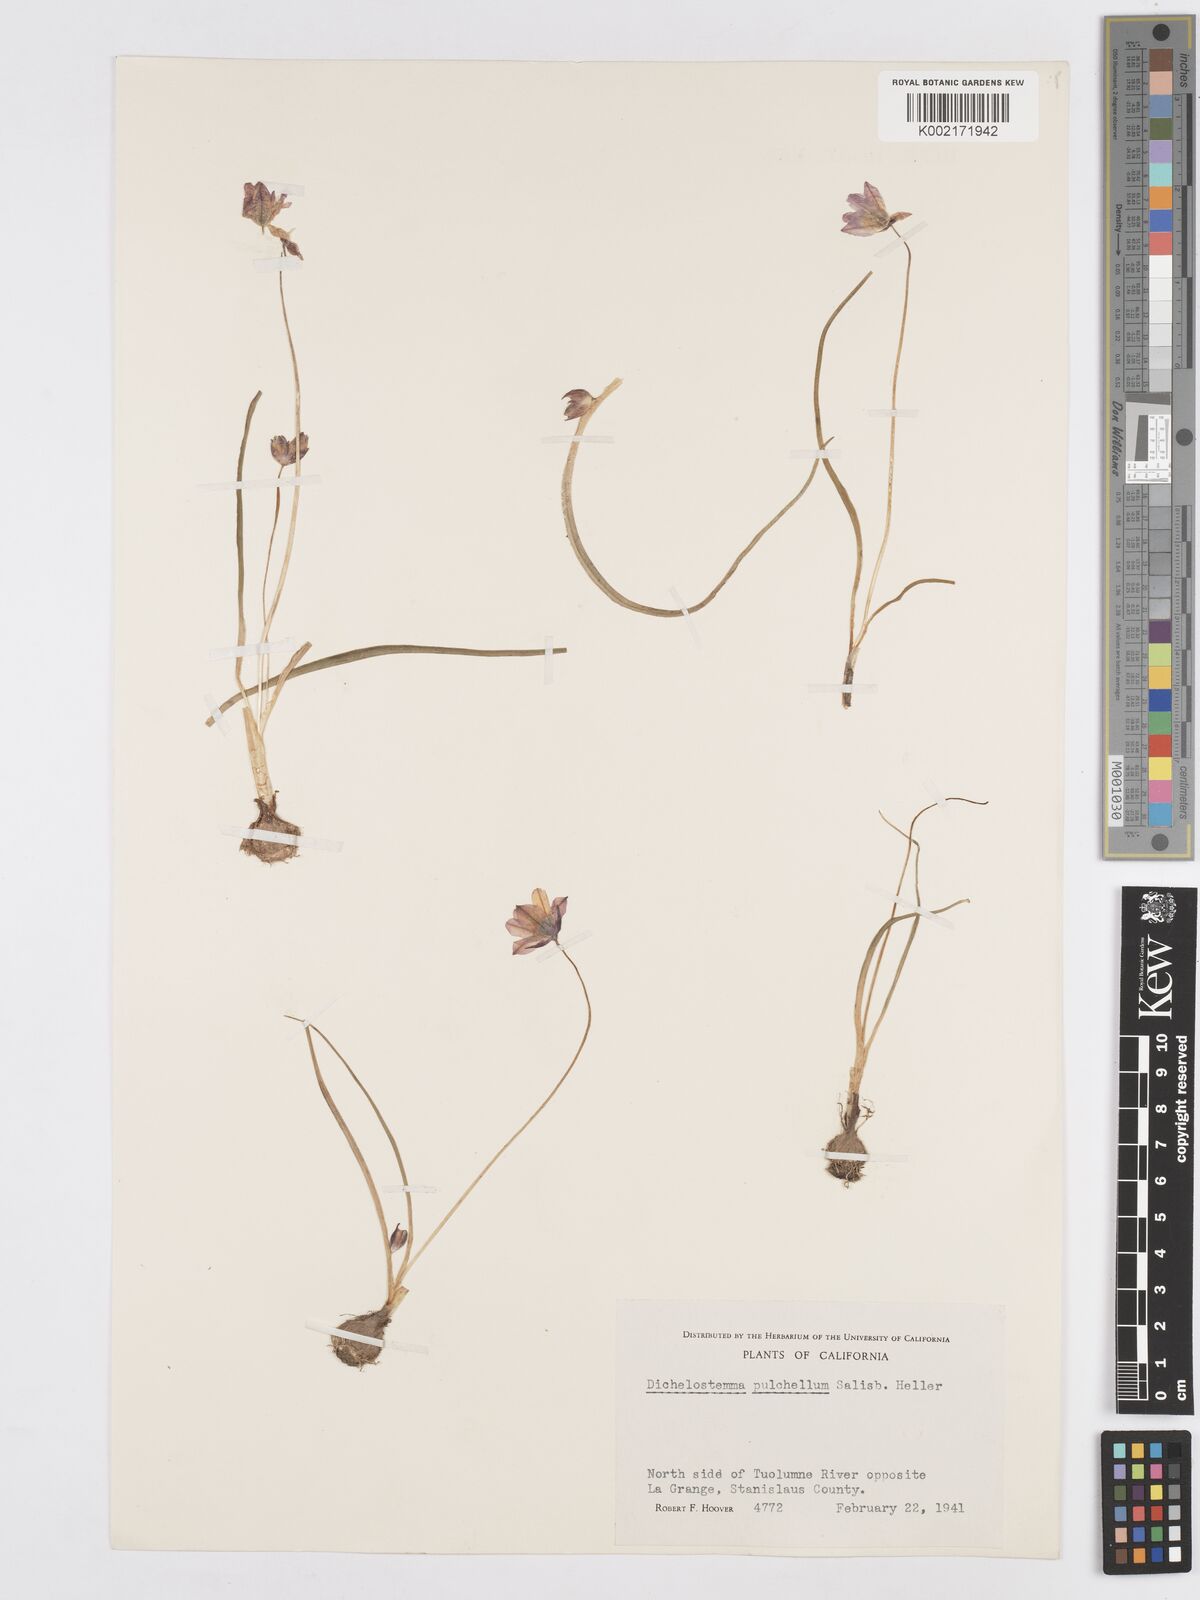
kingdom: Plantae
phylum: Tracheophyta
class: Liliopsida
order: Asparagales
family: Asparagaceae
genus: Dichelostemma
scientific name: Dichelostemma congestum
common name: Fork-tooth ookow
